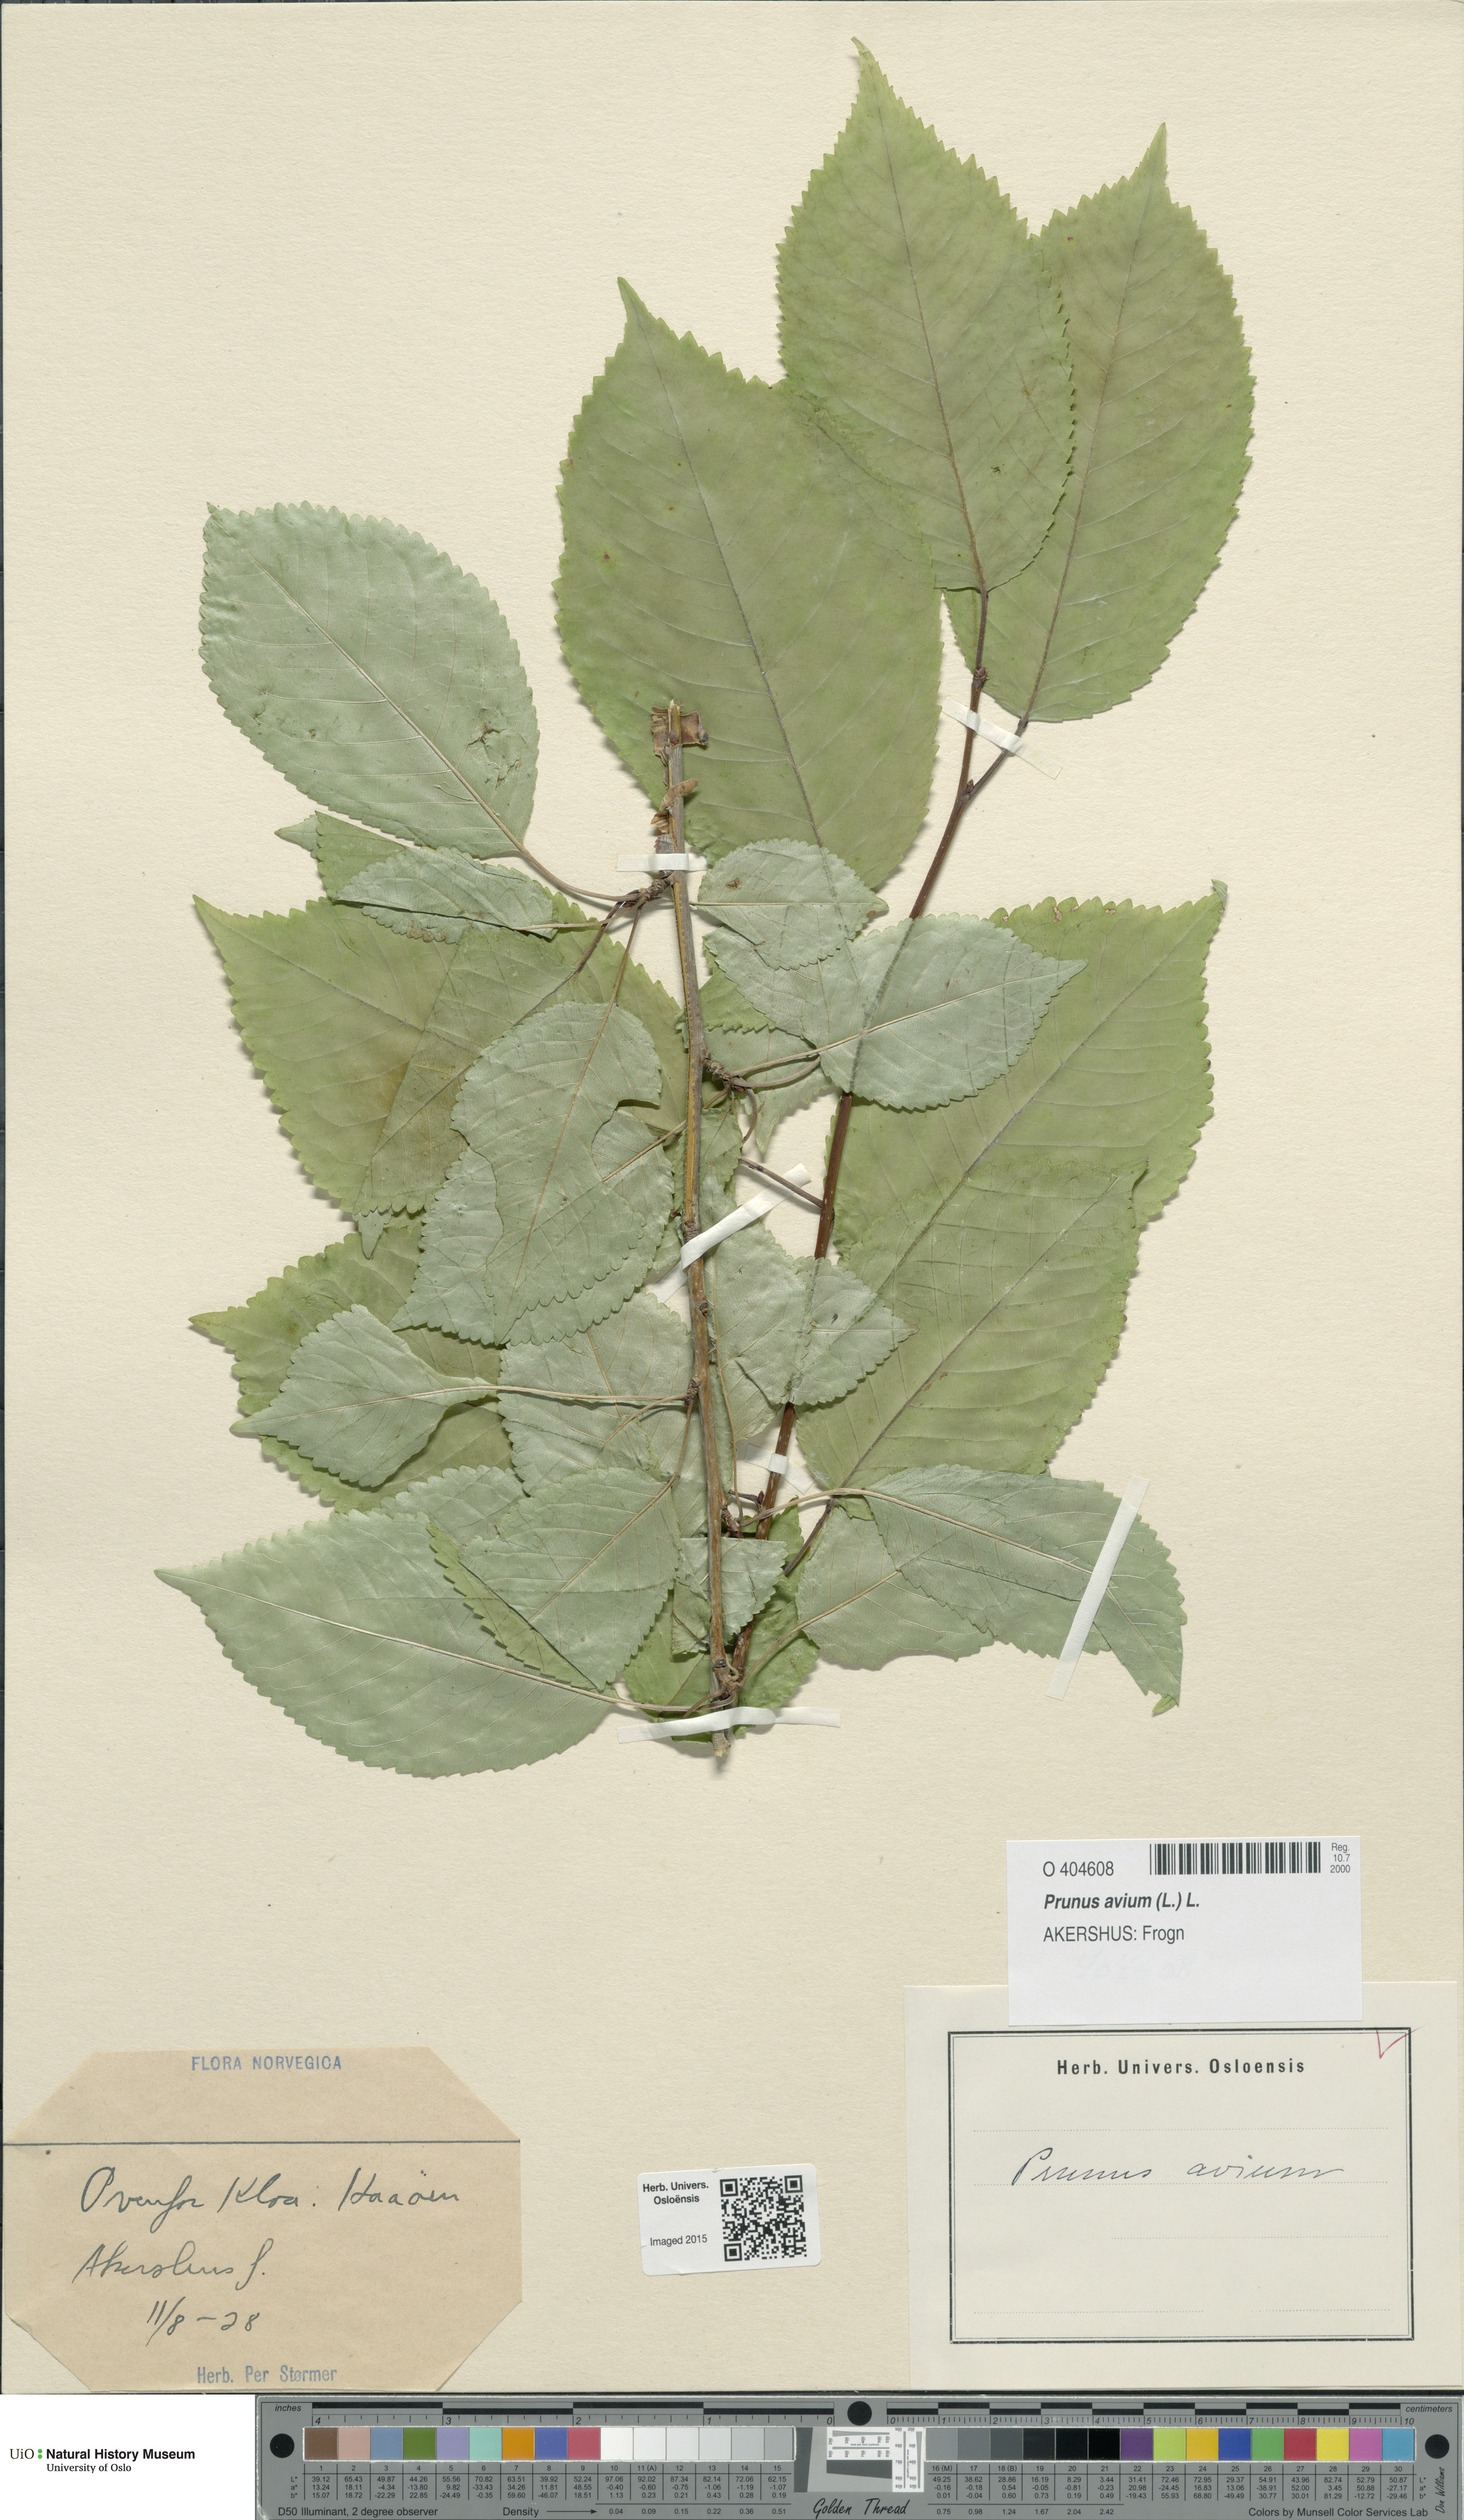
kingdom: Plantae
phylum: Tracheophyta
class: Magnoliopsida
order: Rosales
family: Rosaceae
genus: Prunus
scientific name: Prunus avium
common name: Sweet cherry
